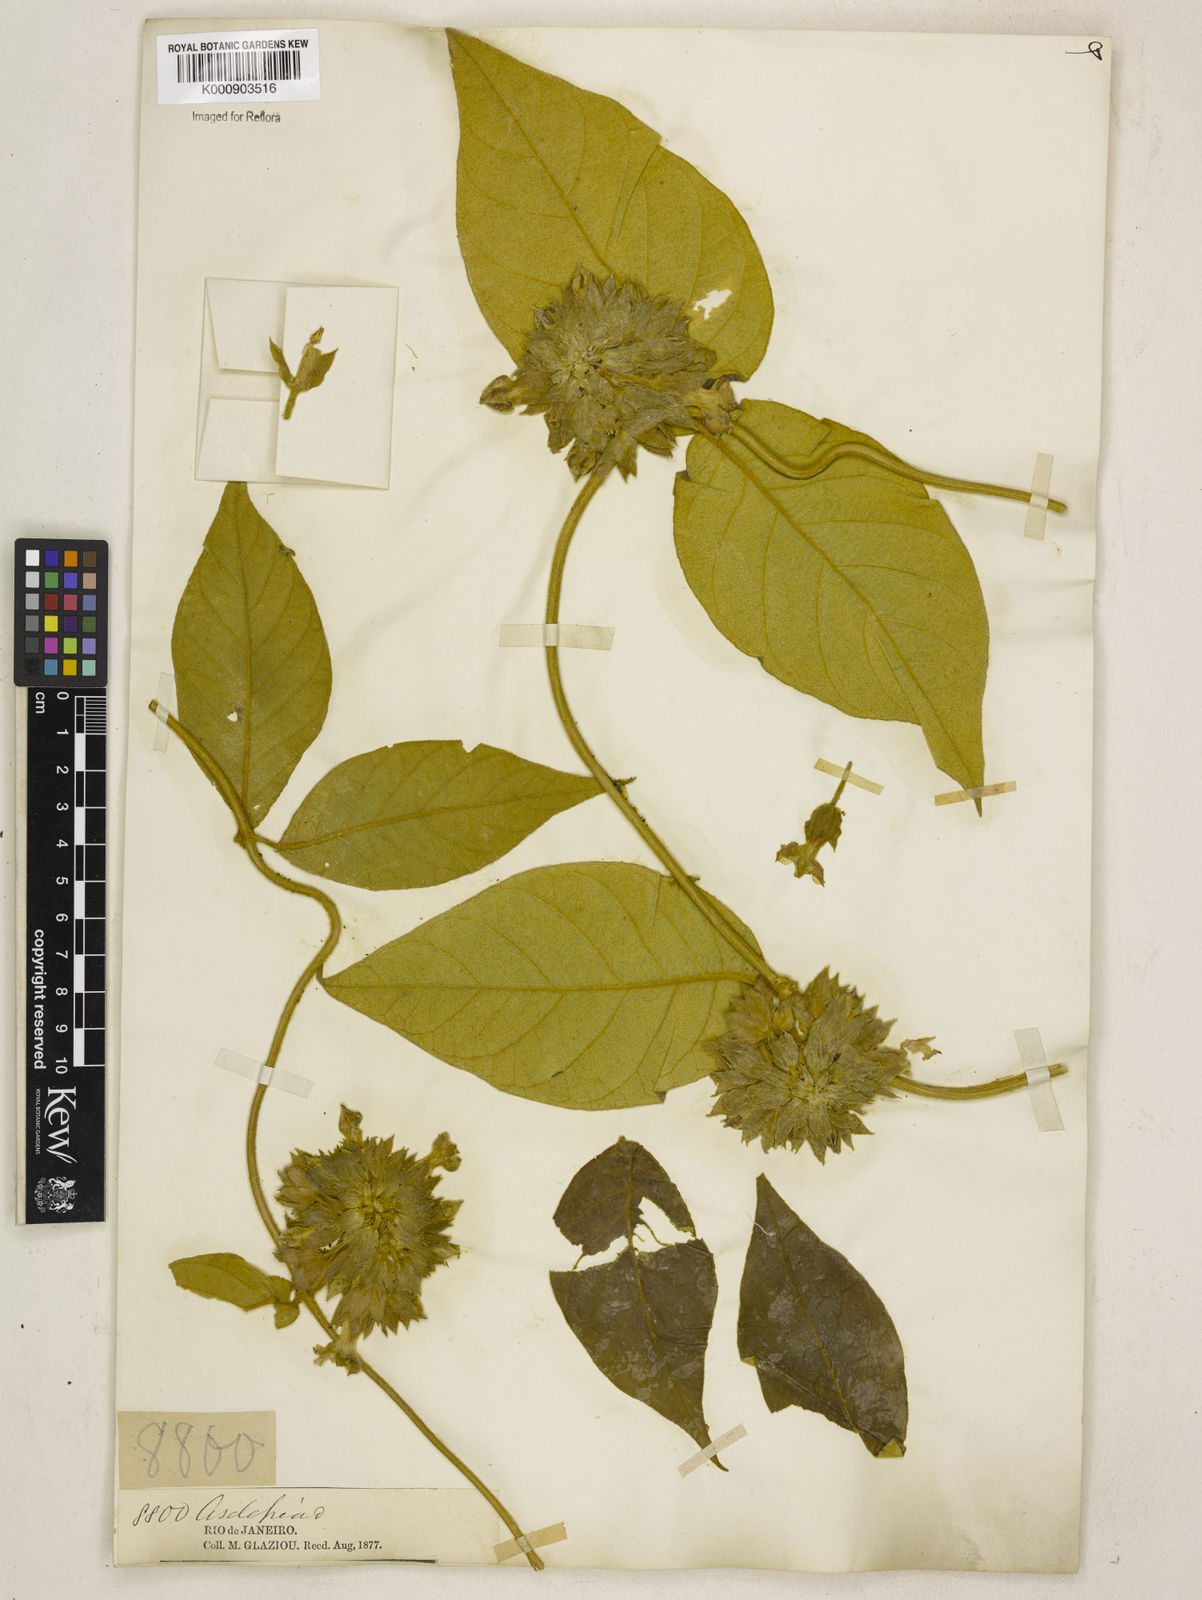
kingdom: Plantae
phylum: Tracheophyta
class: Magnoliopsida
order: Gentianales
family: Apocynaceae
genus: Prestonia
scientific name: Prestonia
